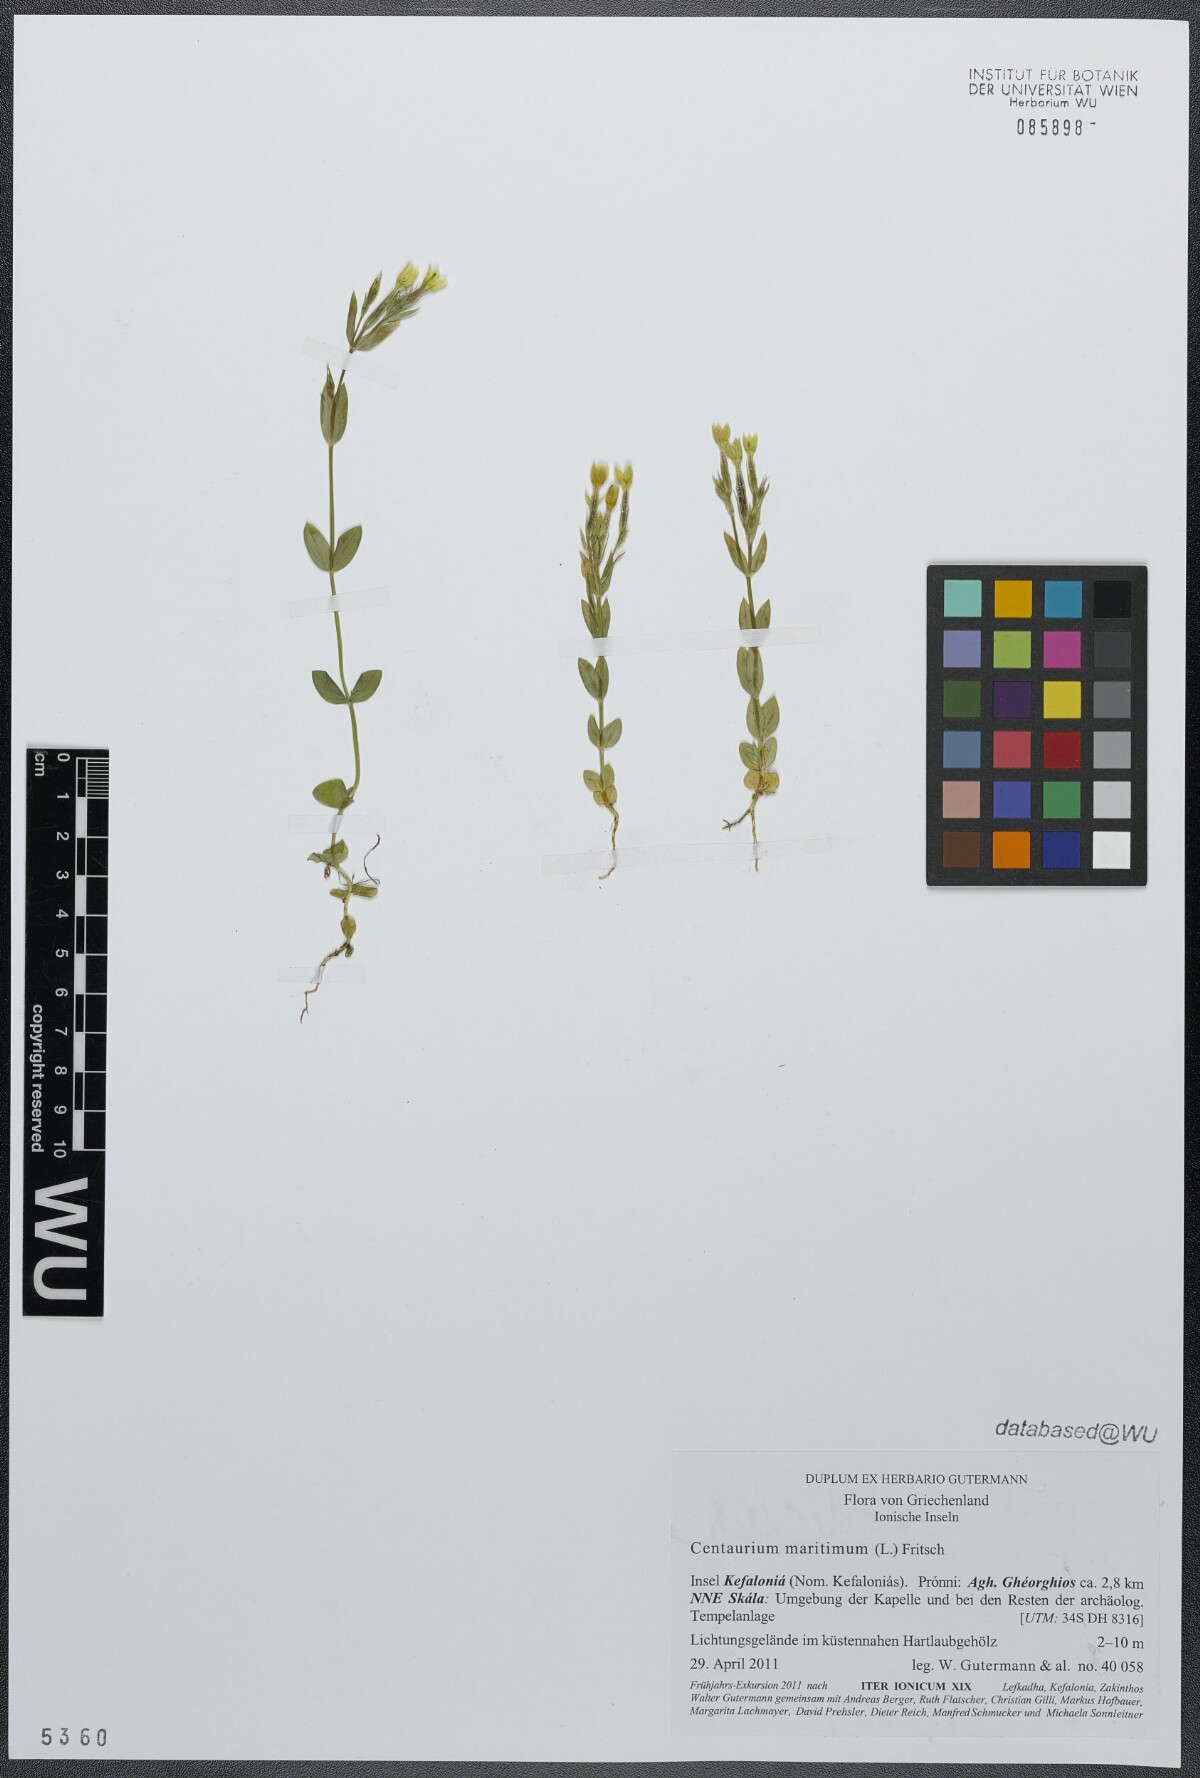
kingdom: Plantae
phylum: Tracheophyta
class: Magnoliopsida
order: Gentianales
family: Gentianaceae
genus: Centaurium
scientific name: Centaurium maritimum
